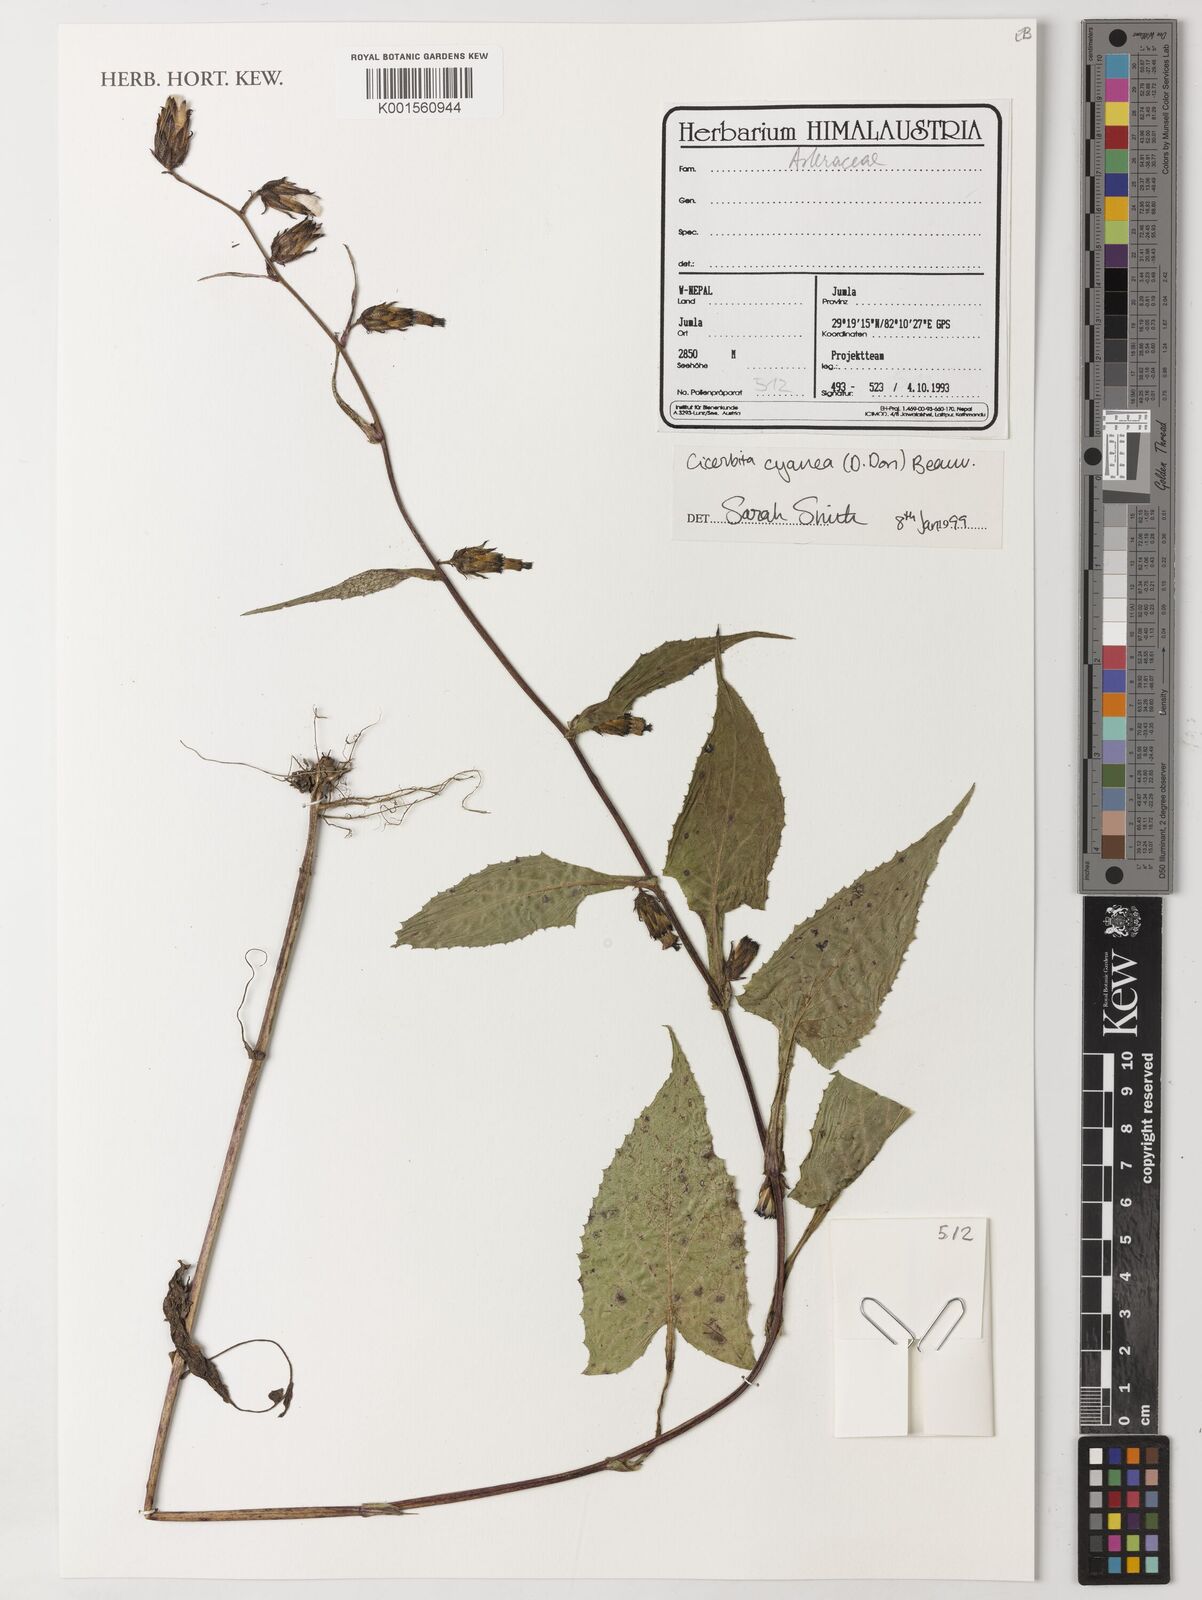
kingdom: Plantae
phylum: Tracheophyta
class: Magnoliopsida
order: Asterales
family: Asteraceae
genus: Melanoseris
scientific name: Melanoseris cyanea
